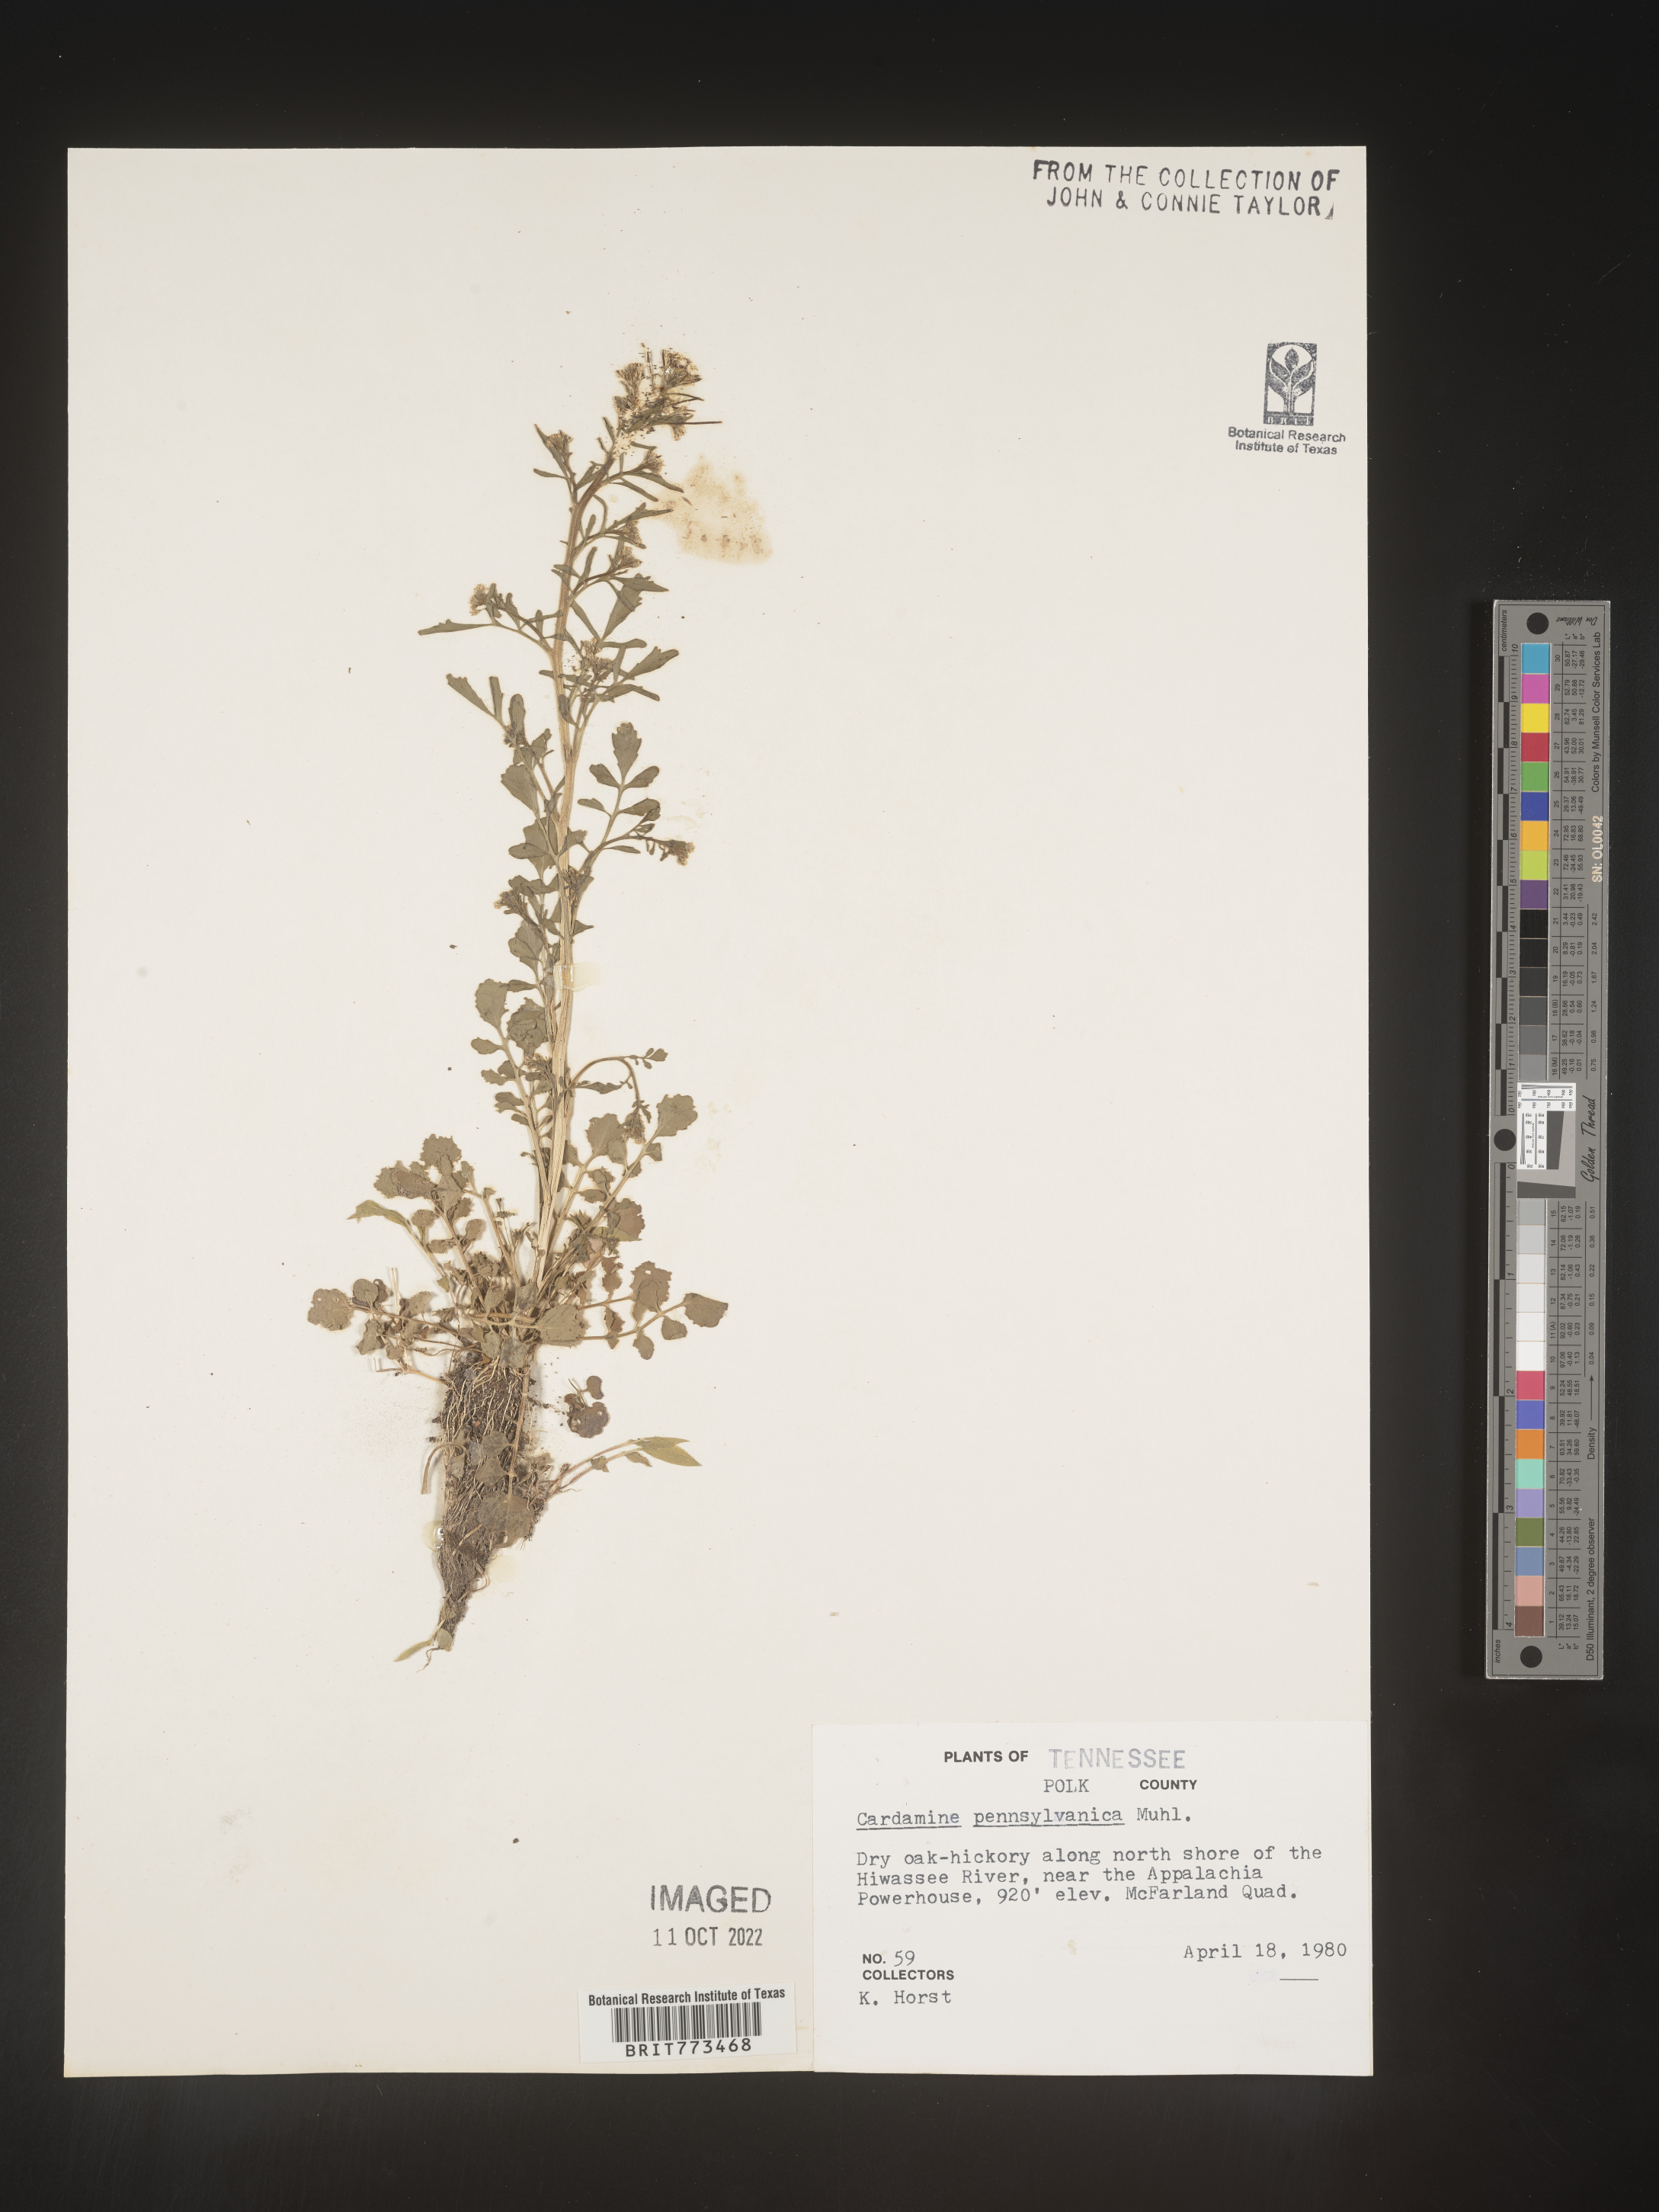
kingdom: Plantae
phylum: Tracheophyta
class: Magnoliopsida
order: Brassicales
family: Brassicaceae
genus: Cardamine
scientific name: Cardamine pensylvanica
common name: Pennsylvania bittercress
